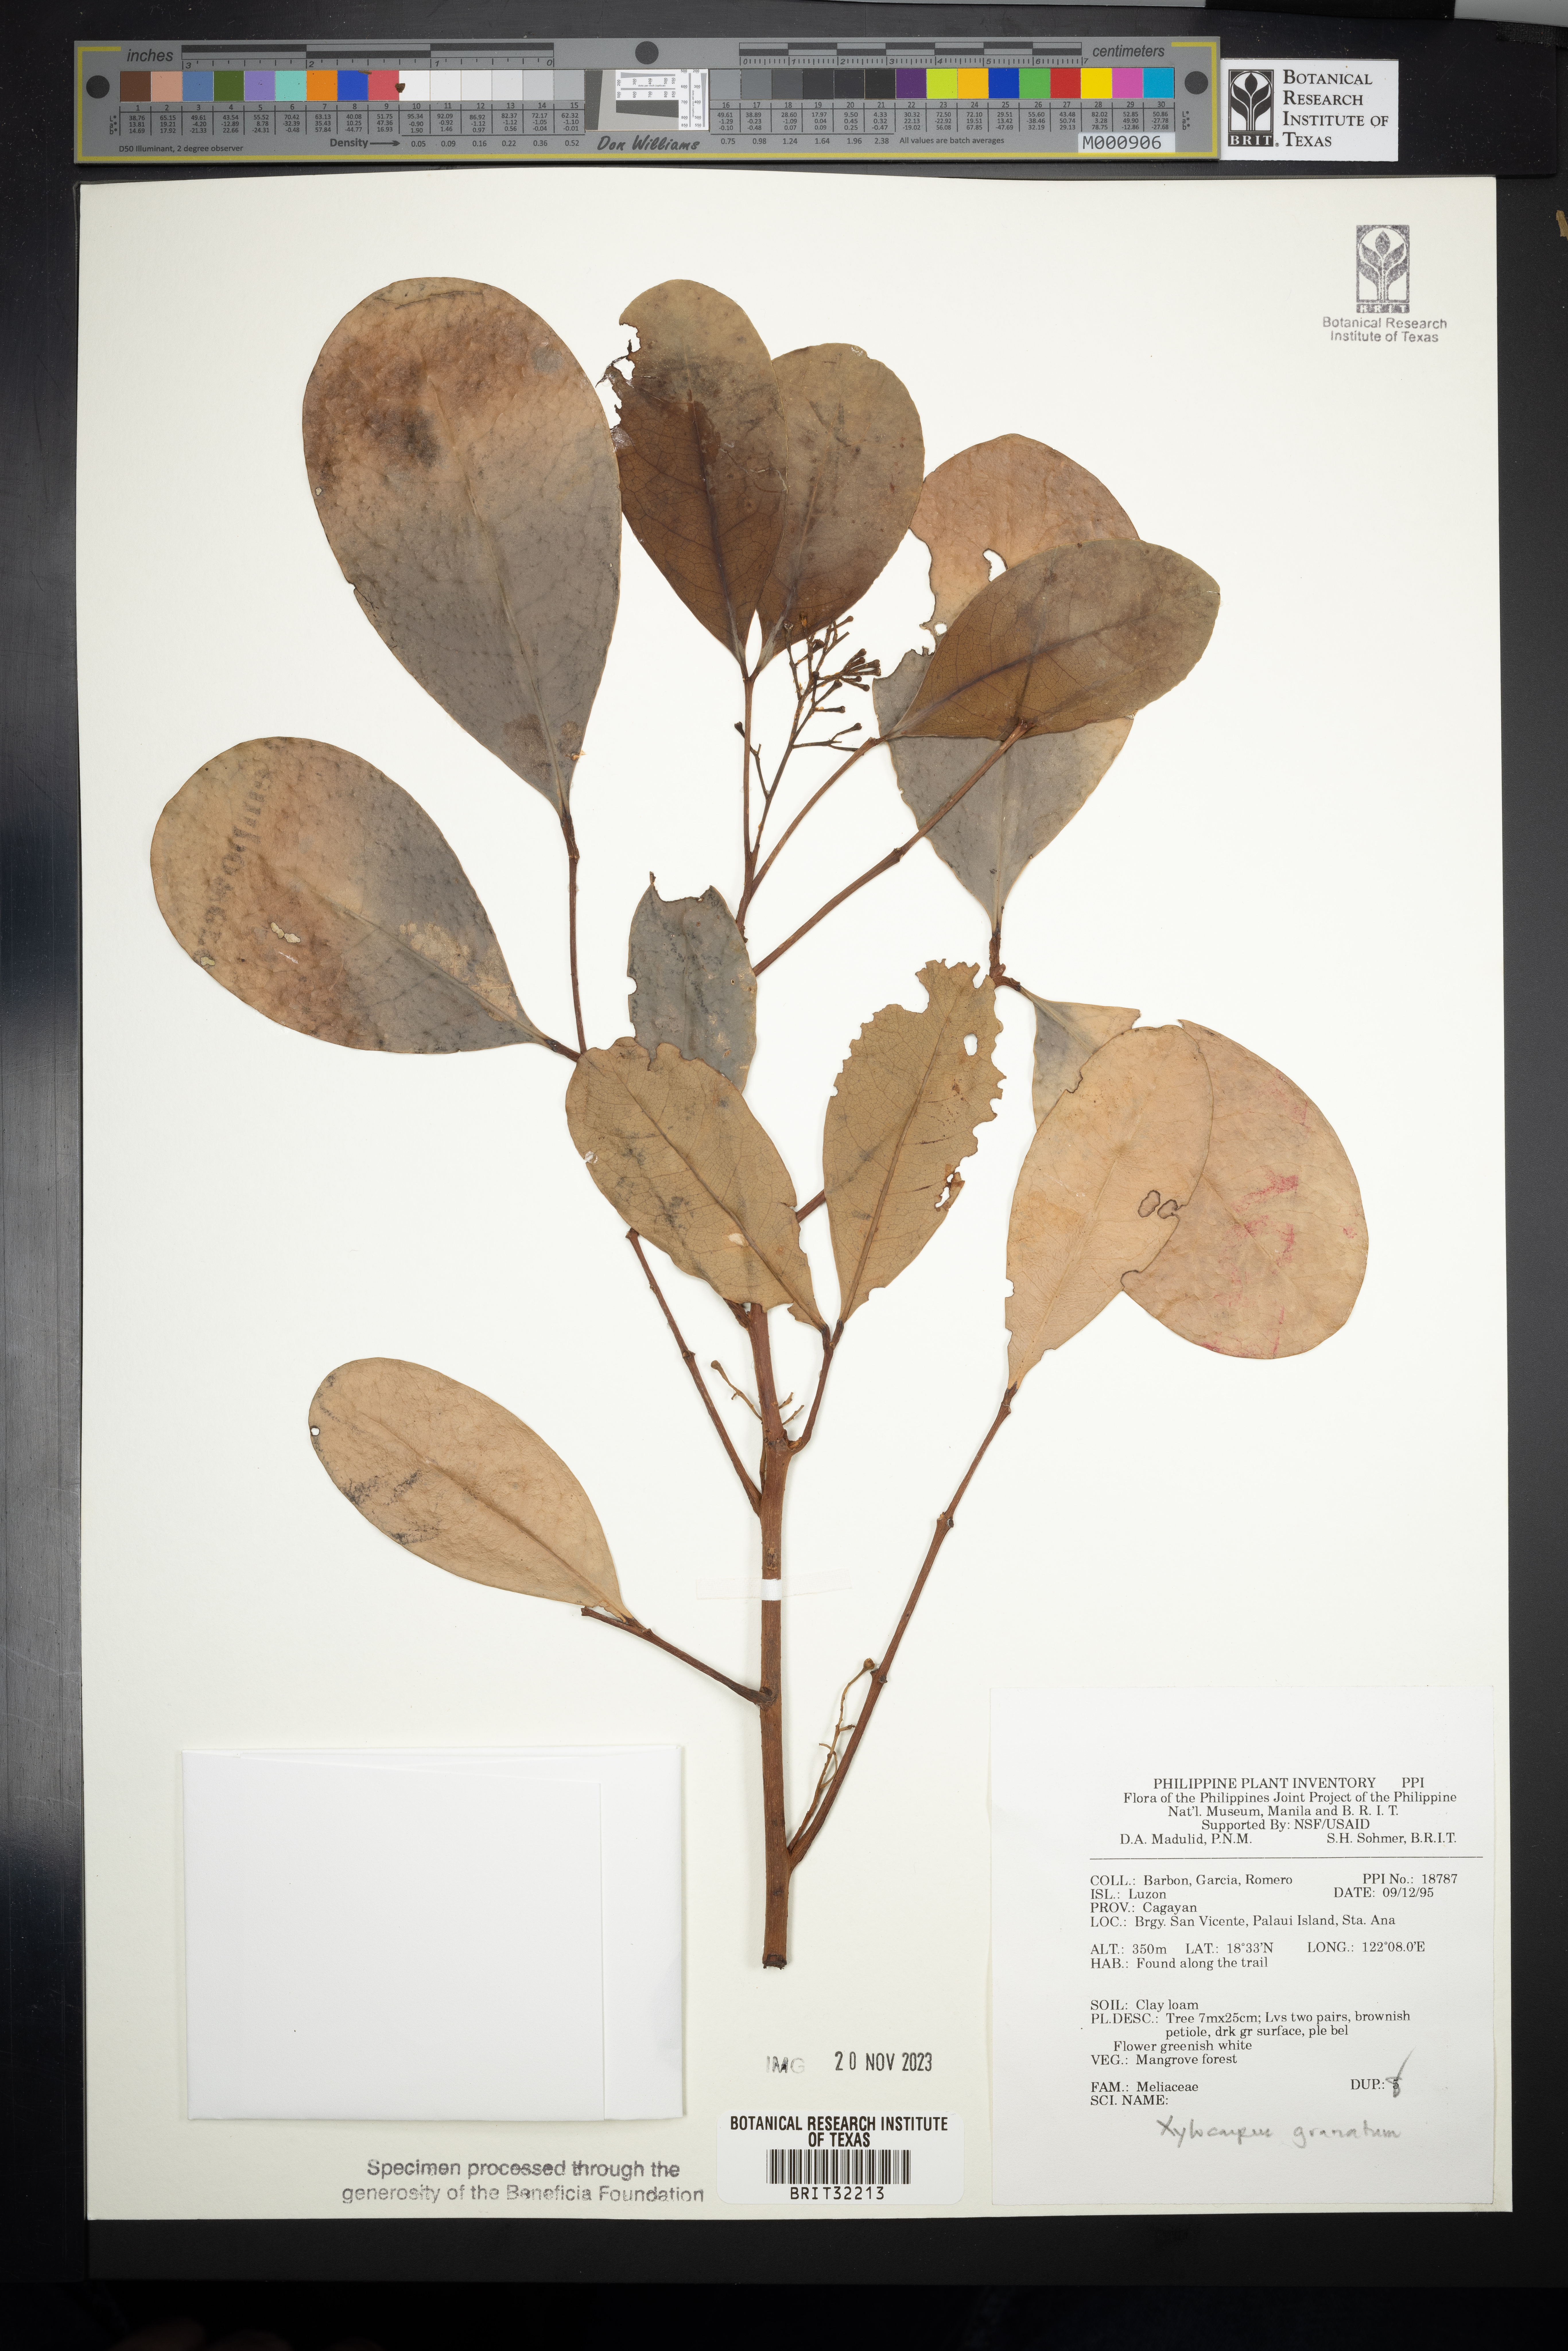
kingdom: Plantae
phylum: Tracheophyta
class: Magnoliopsida
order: Sapindales
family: Meliaceae
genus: Xylocarpus
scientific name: Xylocarpus granatum
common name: Apple mangrove
